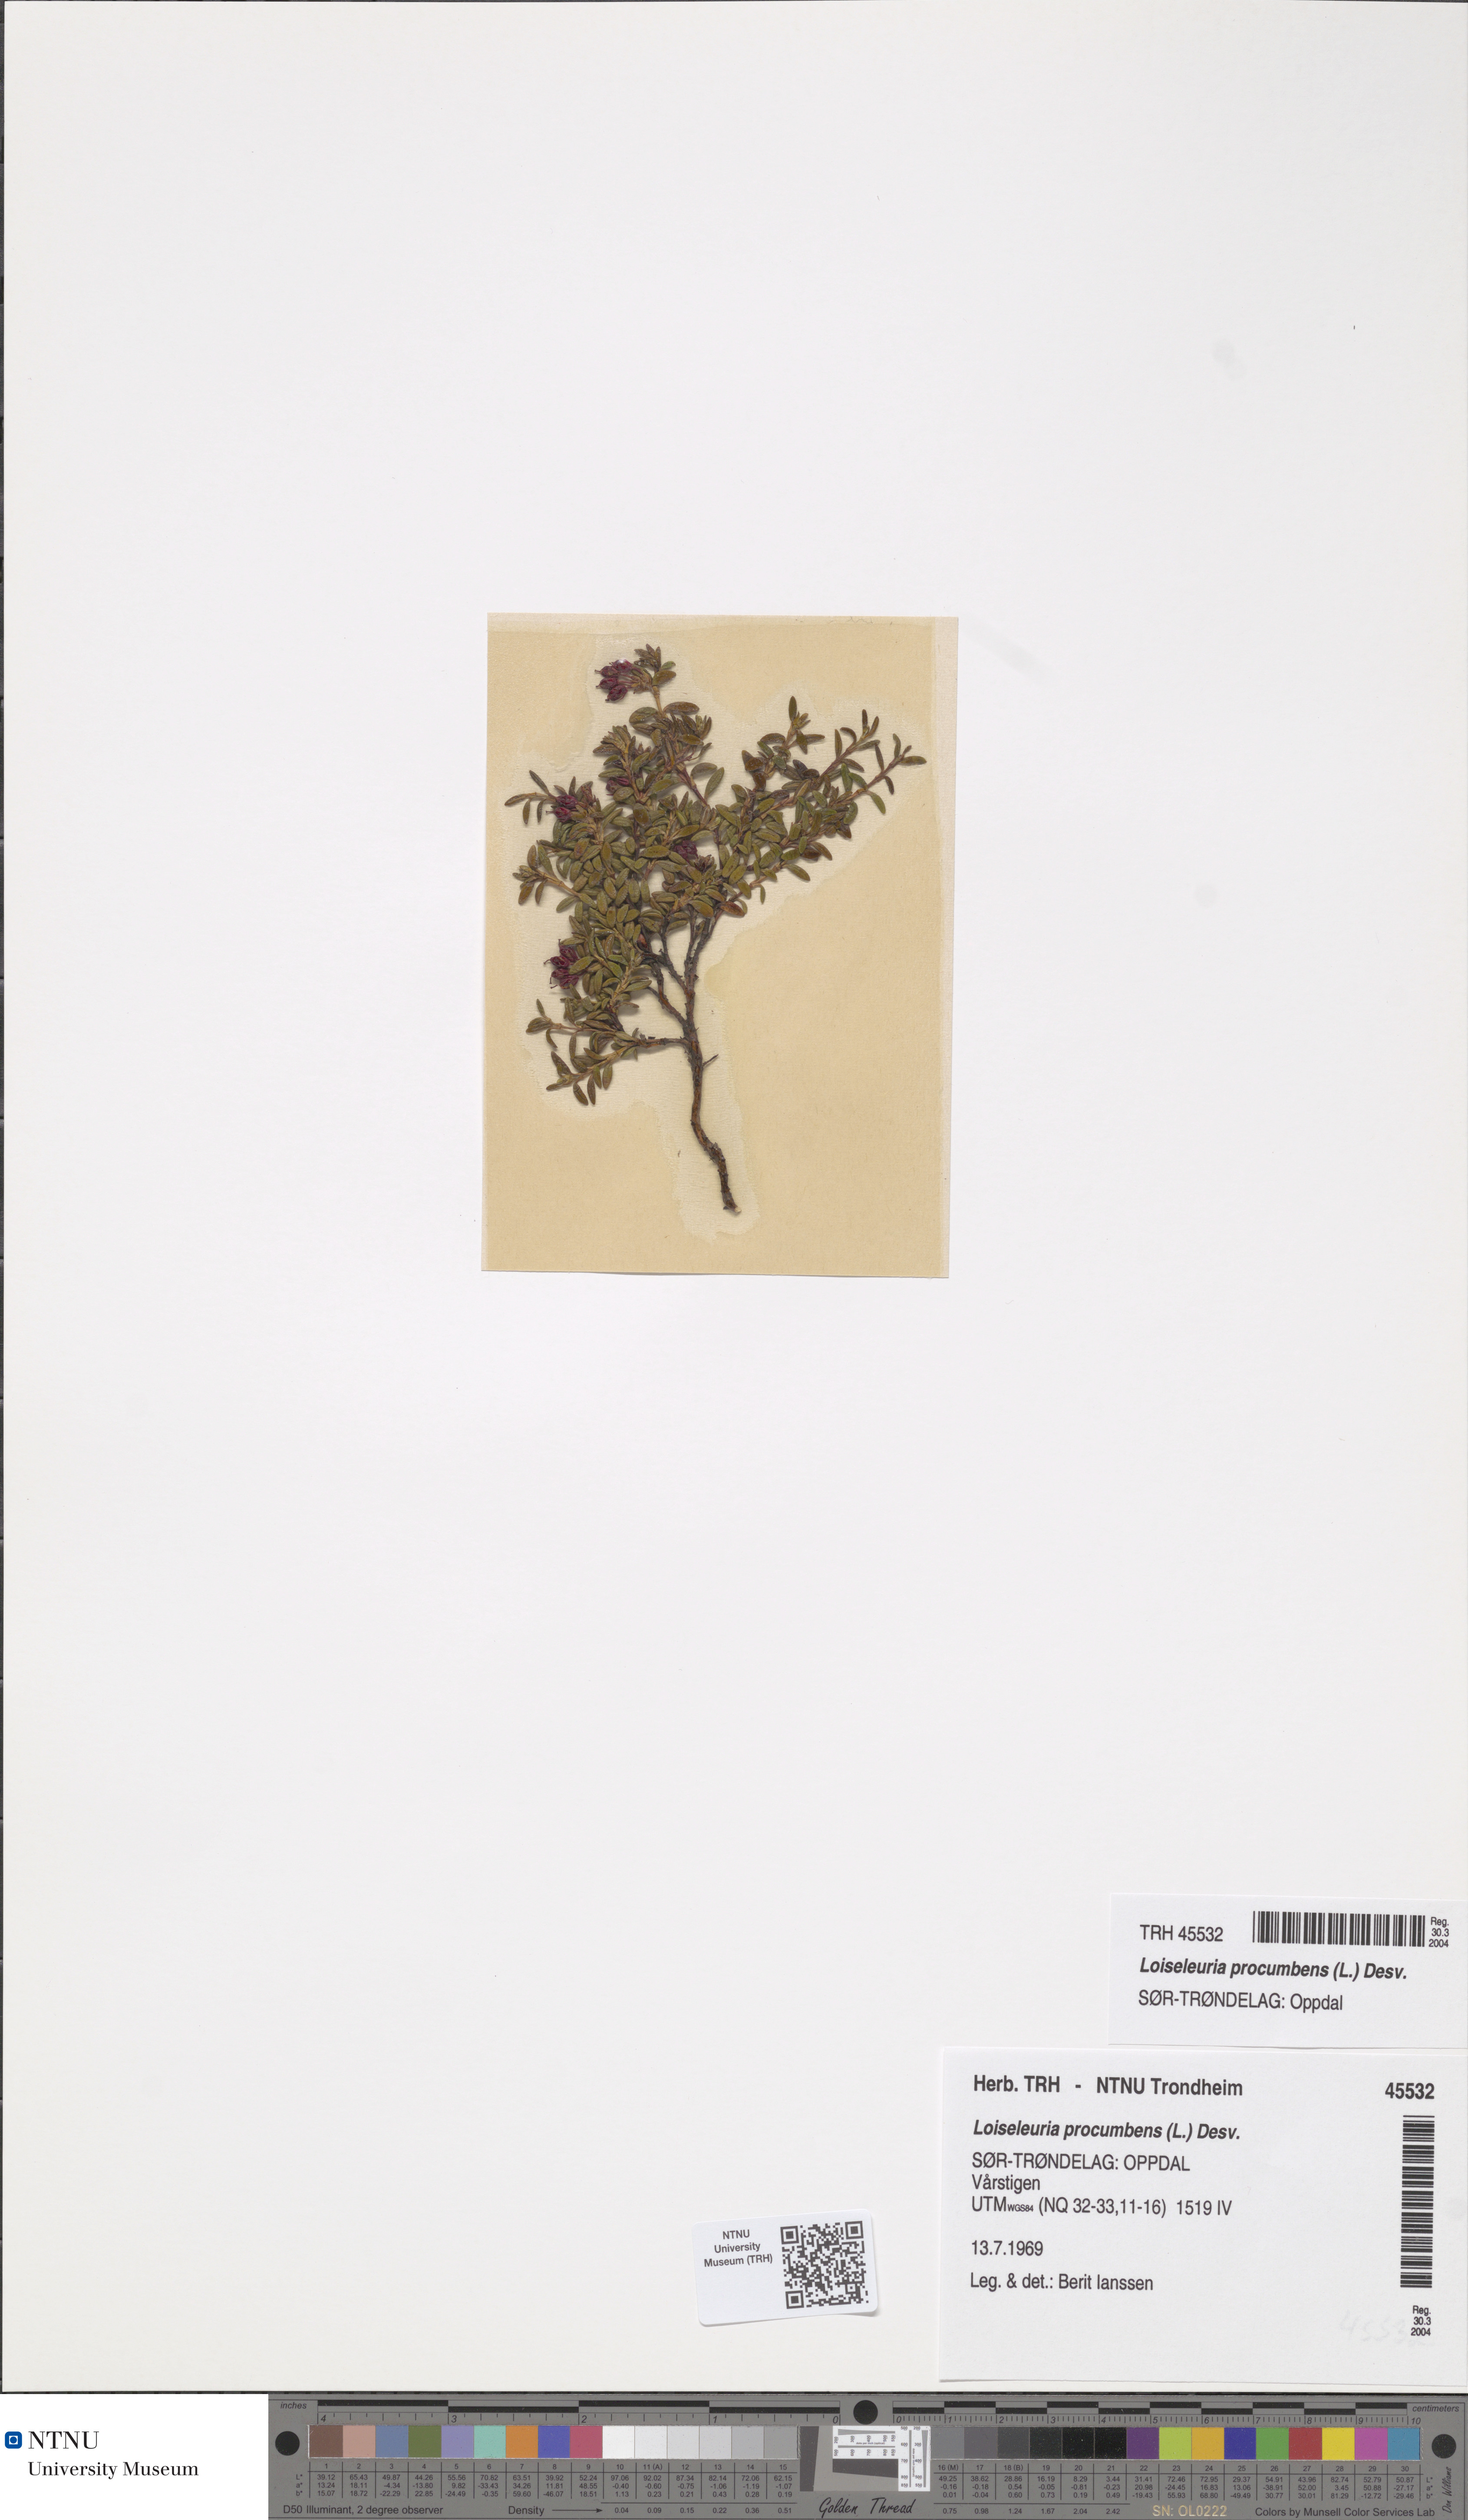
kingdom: Plantae
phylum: Tracheophyta
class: Magnoliopsida
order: Ericales
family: Ericaceae
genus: Kalmia
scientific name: Kalmia procumbens
